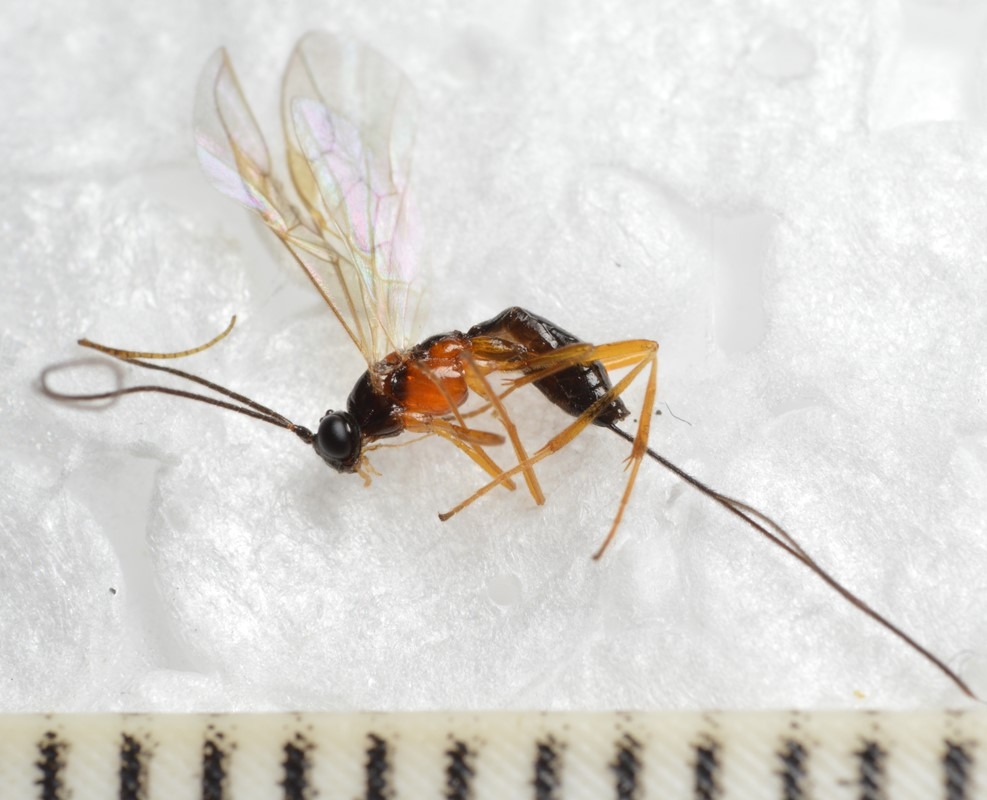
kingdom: Animalia
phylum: Arthropoda
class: Insecta
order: Hymenoptera
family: Braconidae
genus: Charmon
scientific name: Charmon cruentatus
